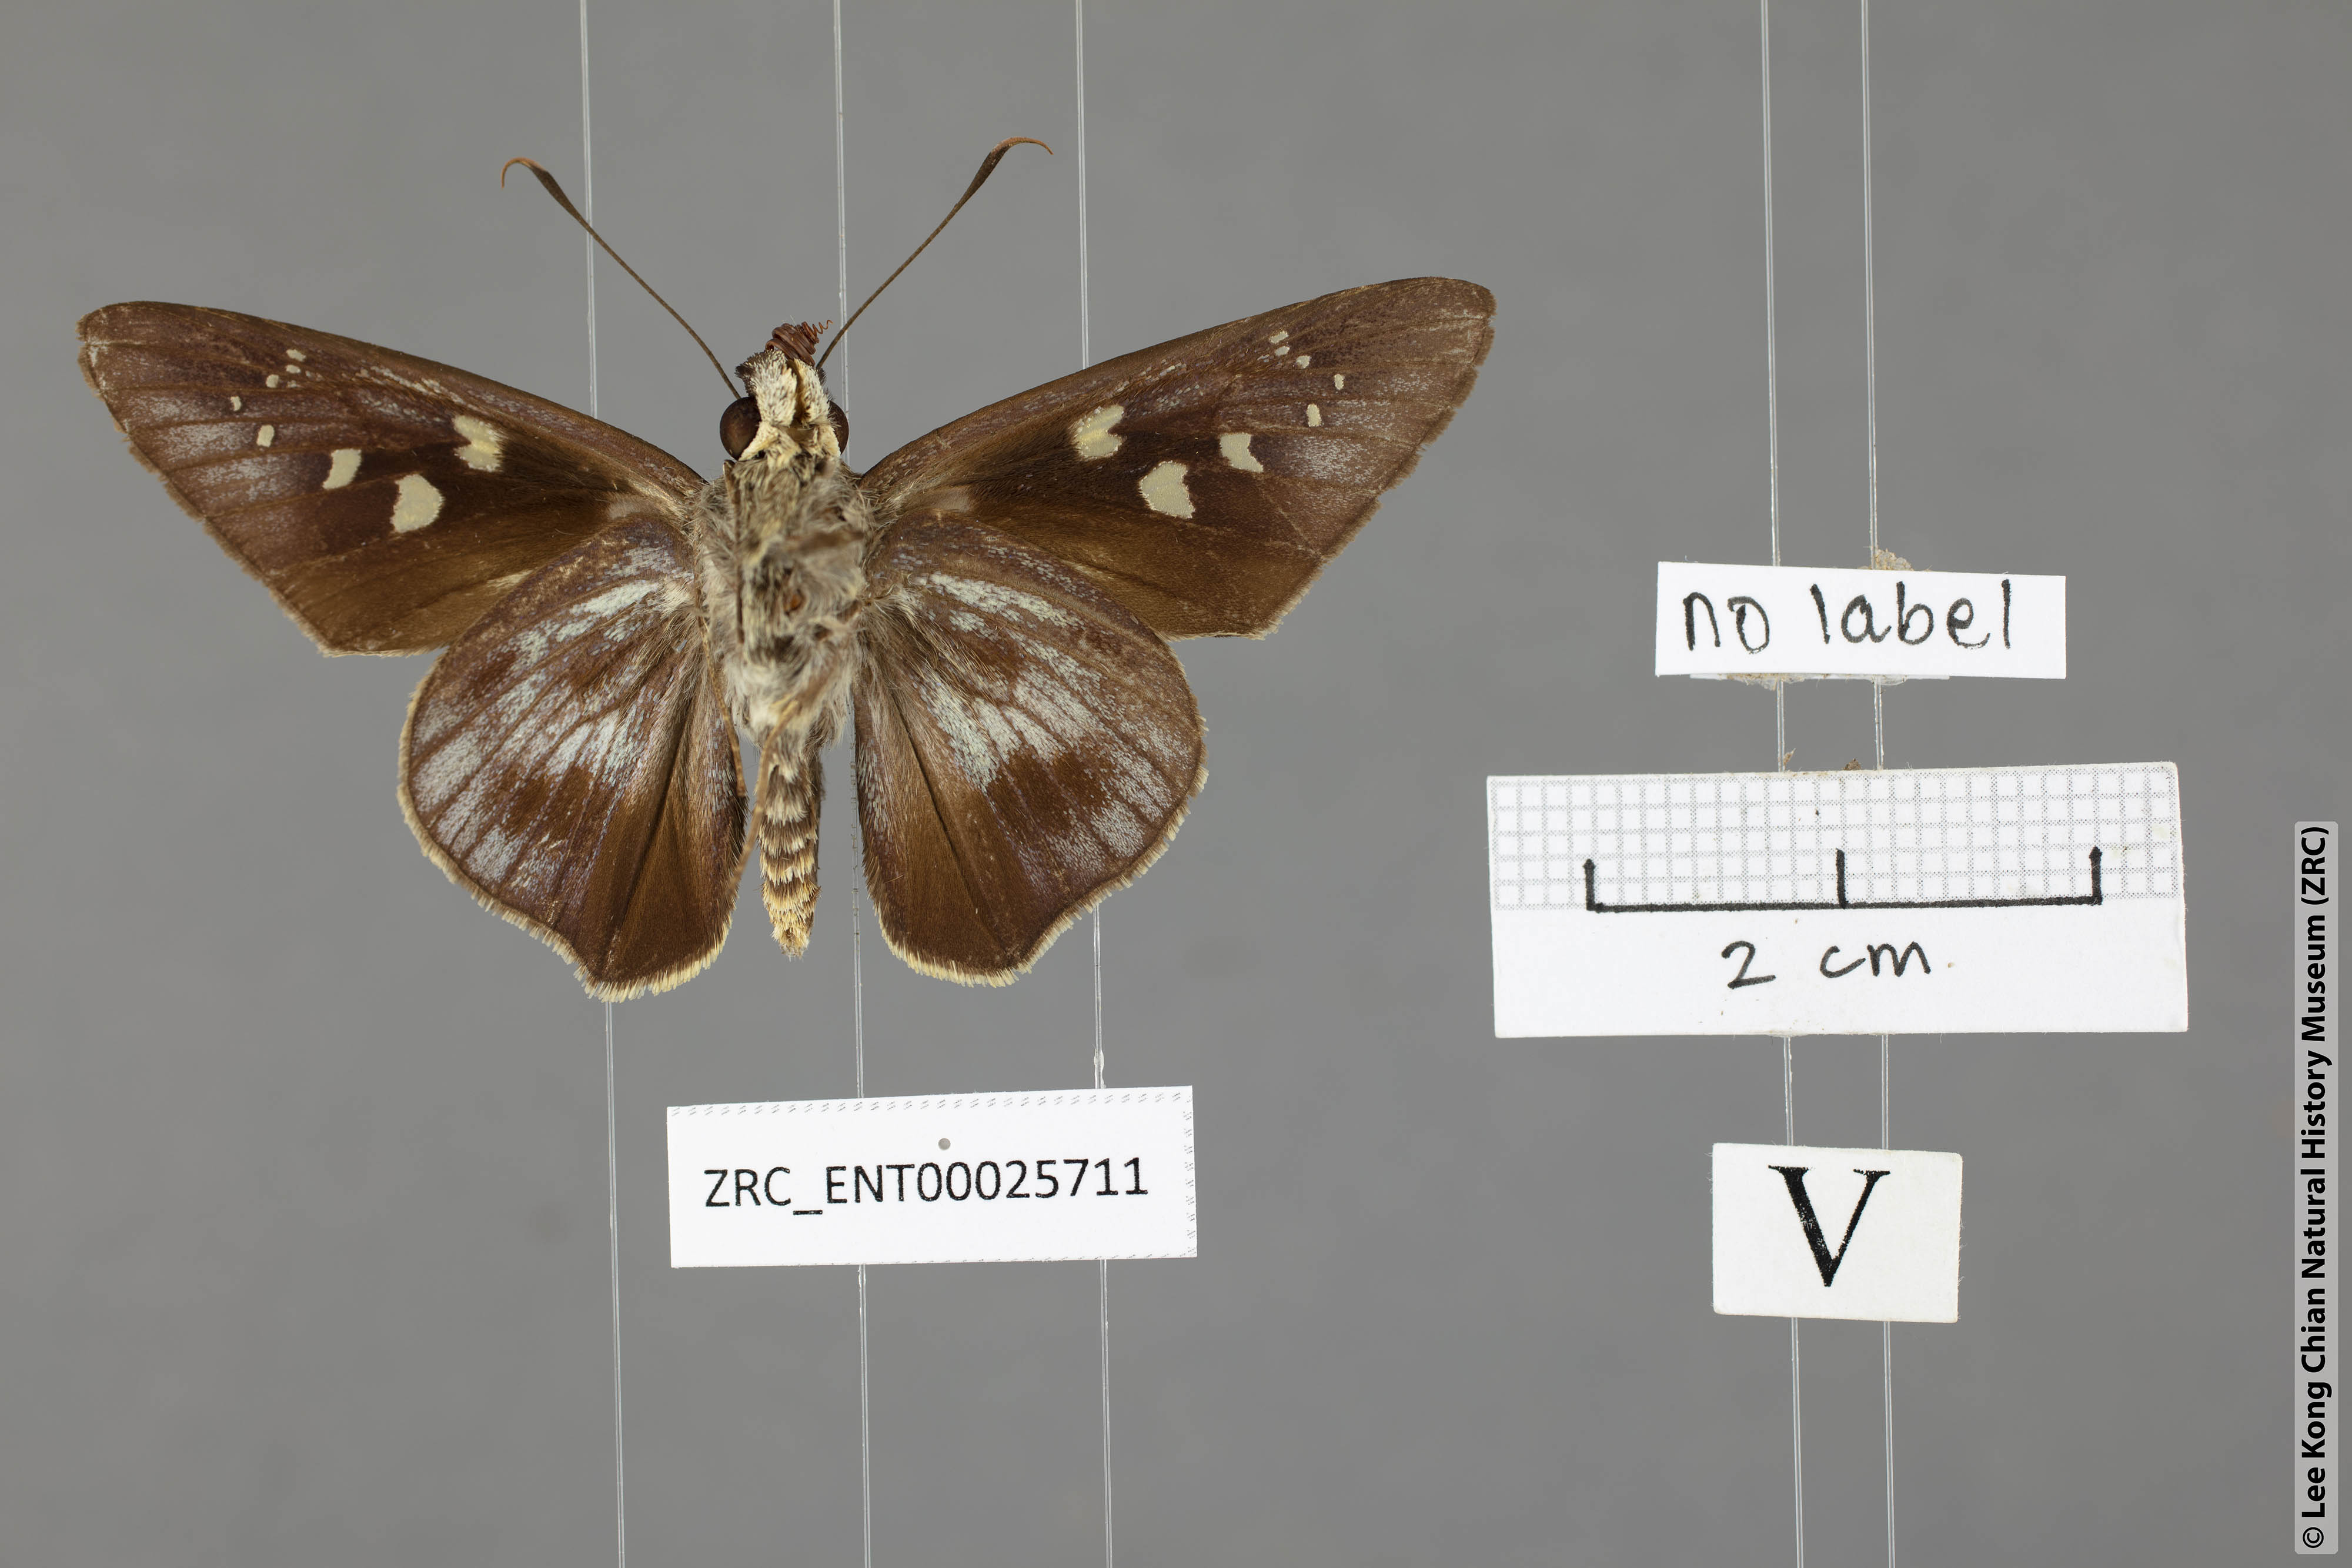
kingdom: Animalia
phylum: Arthropoda
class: Insecta
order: Lepidoptera
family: Hesperiidae
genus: Unkana
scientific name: Unkana ambasa
